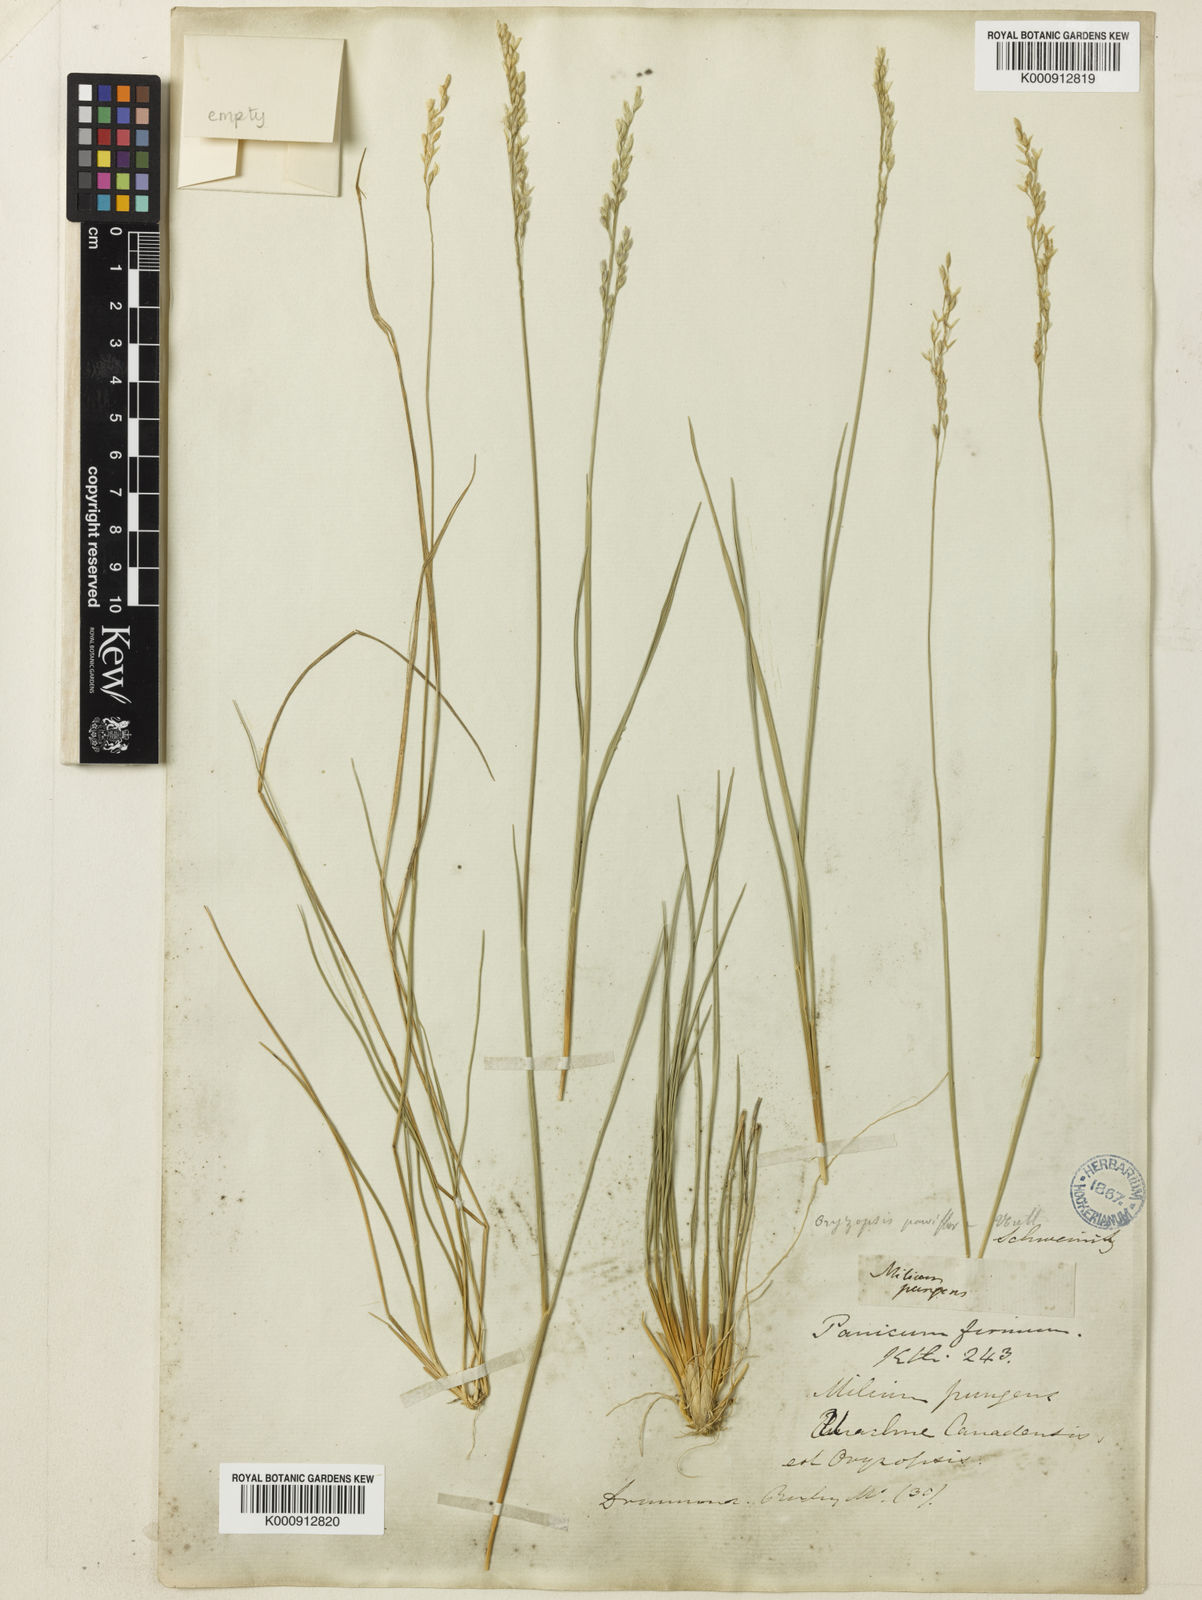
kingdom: Plantae
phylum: Tracheophyta
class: Liliopsida
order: Poales
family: Poaceae
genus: Piptatheropsis
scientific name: Piptatheropsis pungens
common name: Northern ricegrass
